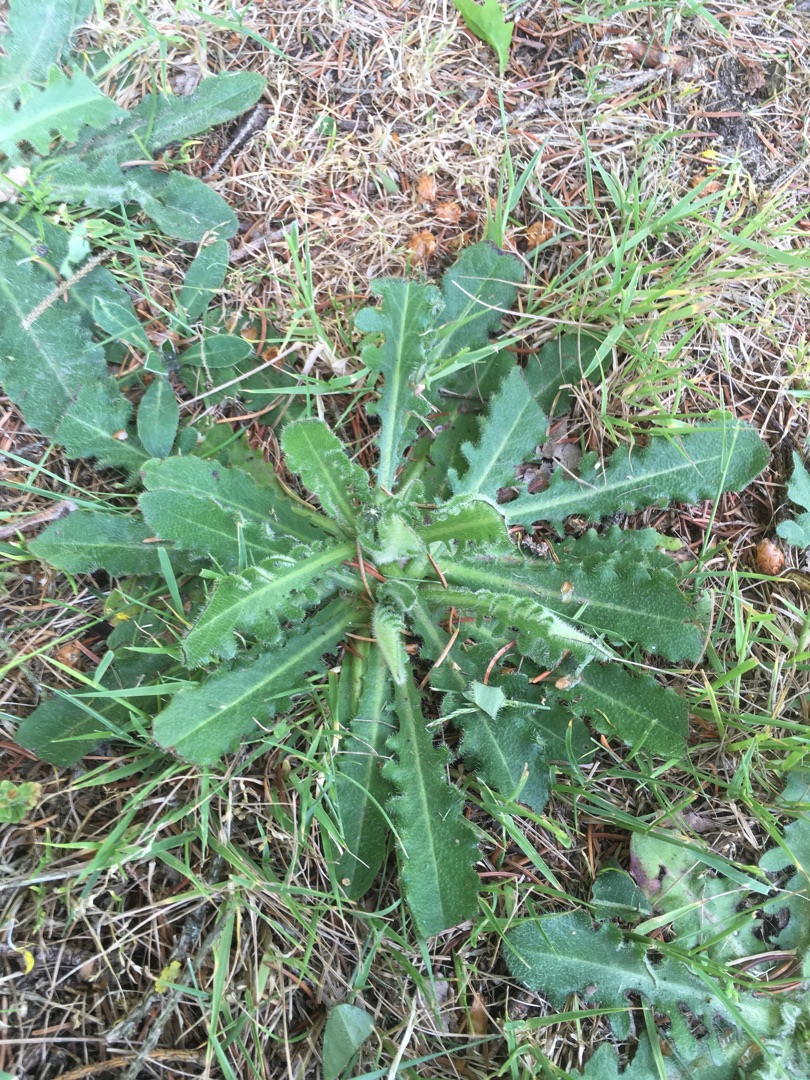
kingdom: Plantae
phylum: Tracheophyta
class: Magnoliopsida
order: Asterales
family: Asteraceae
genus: Hypochaeris
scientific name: Hypochaeris radicata
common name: Almindelig kongepen
